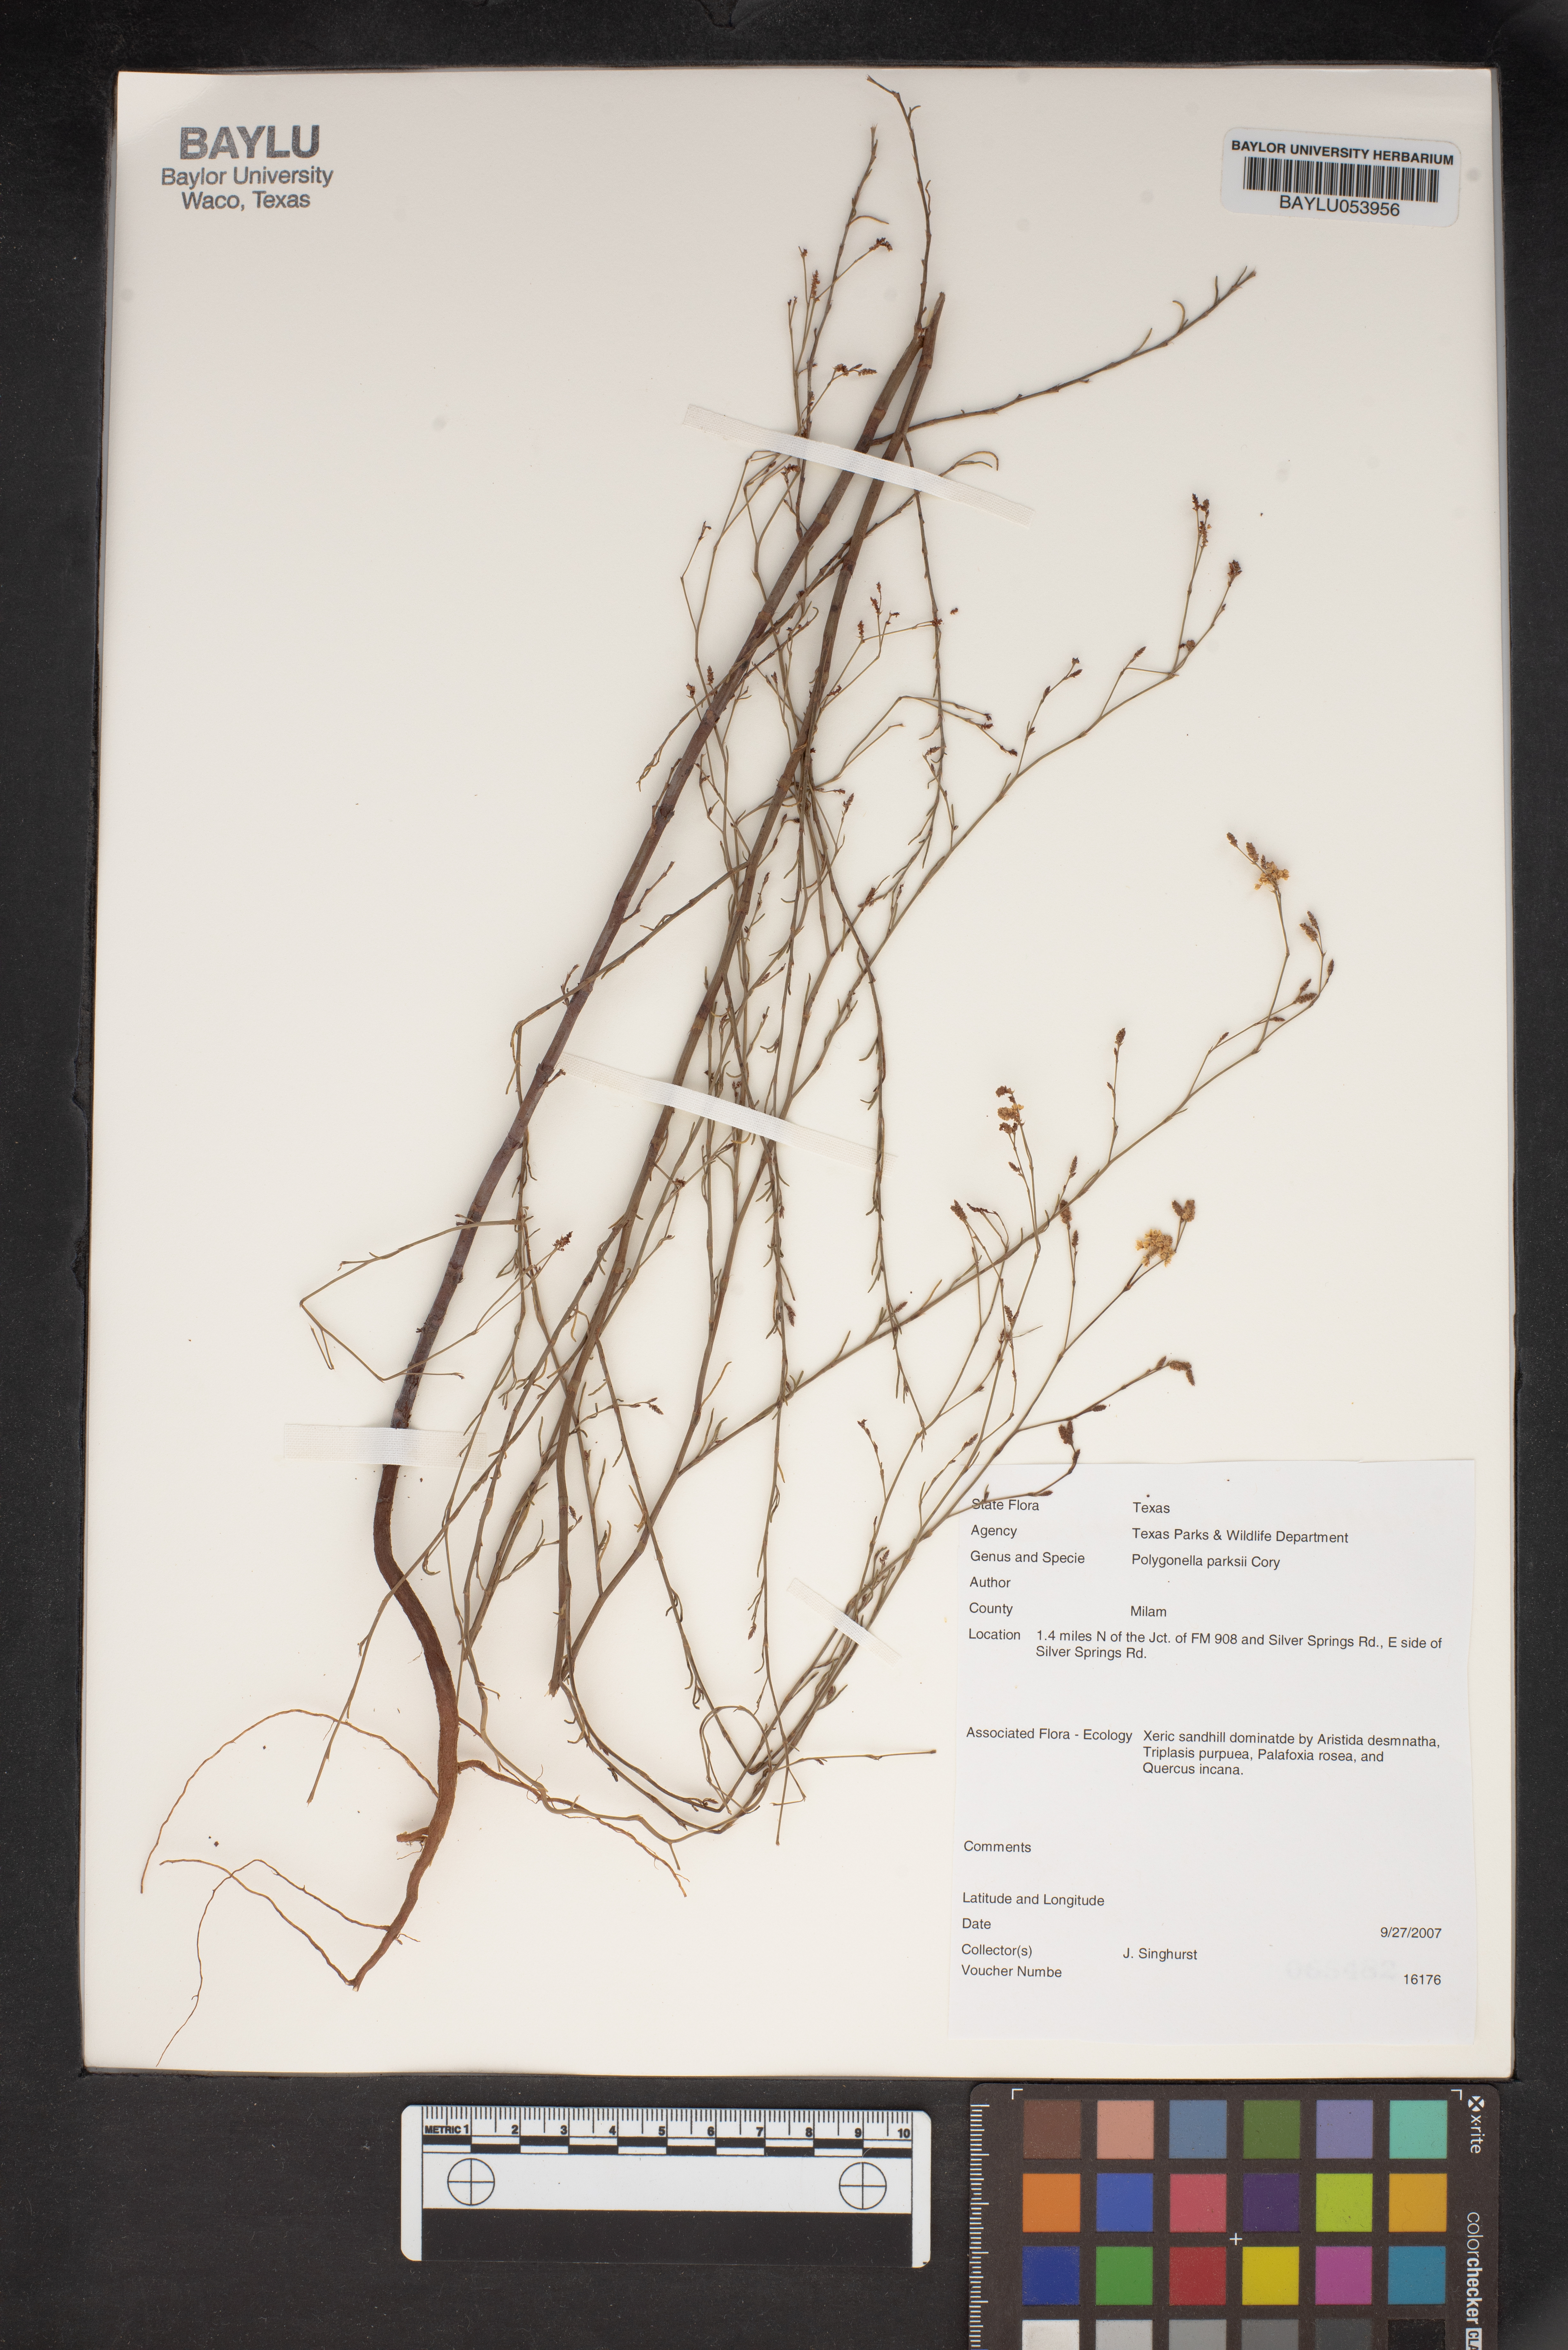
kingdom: Plantae
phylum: Tracheophyta
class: Magnoliopsida
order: Caryophyllales
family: Polygonaceae
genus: Polygonella
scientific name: Polygonella parksii
